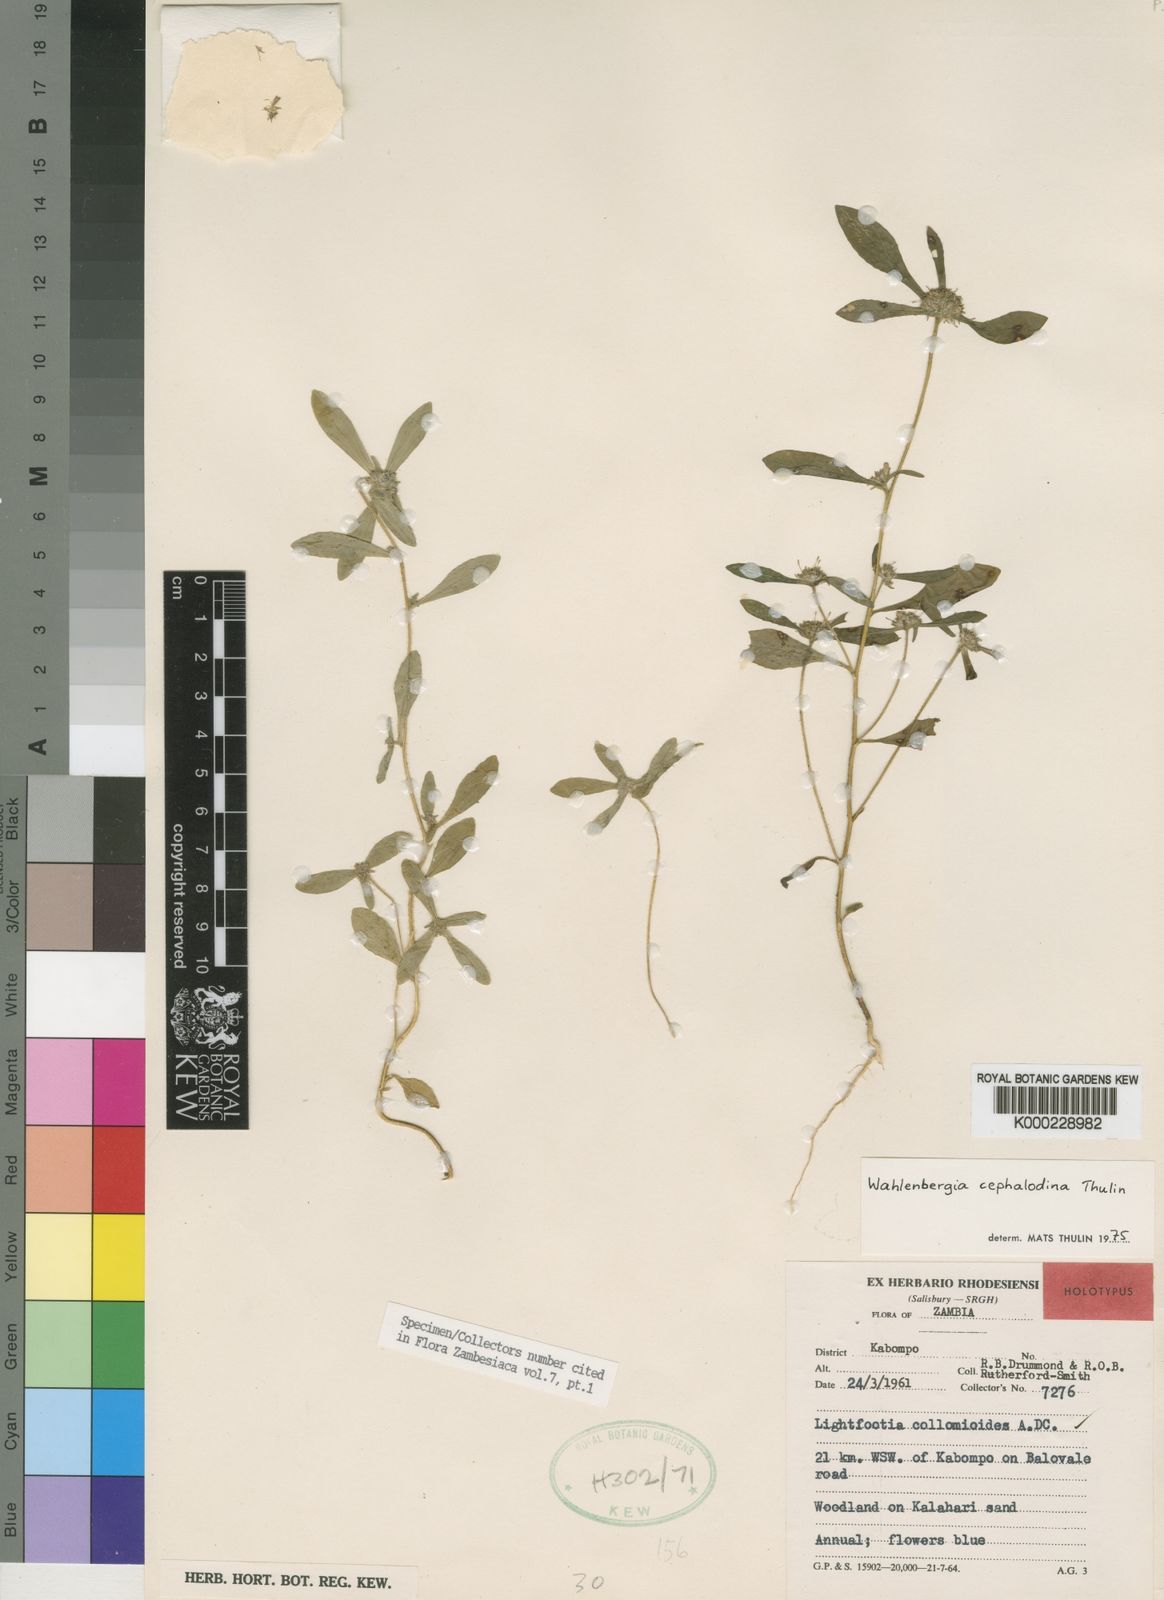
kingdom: Plantae
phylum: Tracheophyta
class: Magnoliopsida
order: Asterales
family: Campanulaceae
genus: Wahlenbergia
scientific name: Wahlenbergia cephalodina
